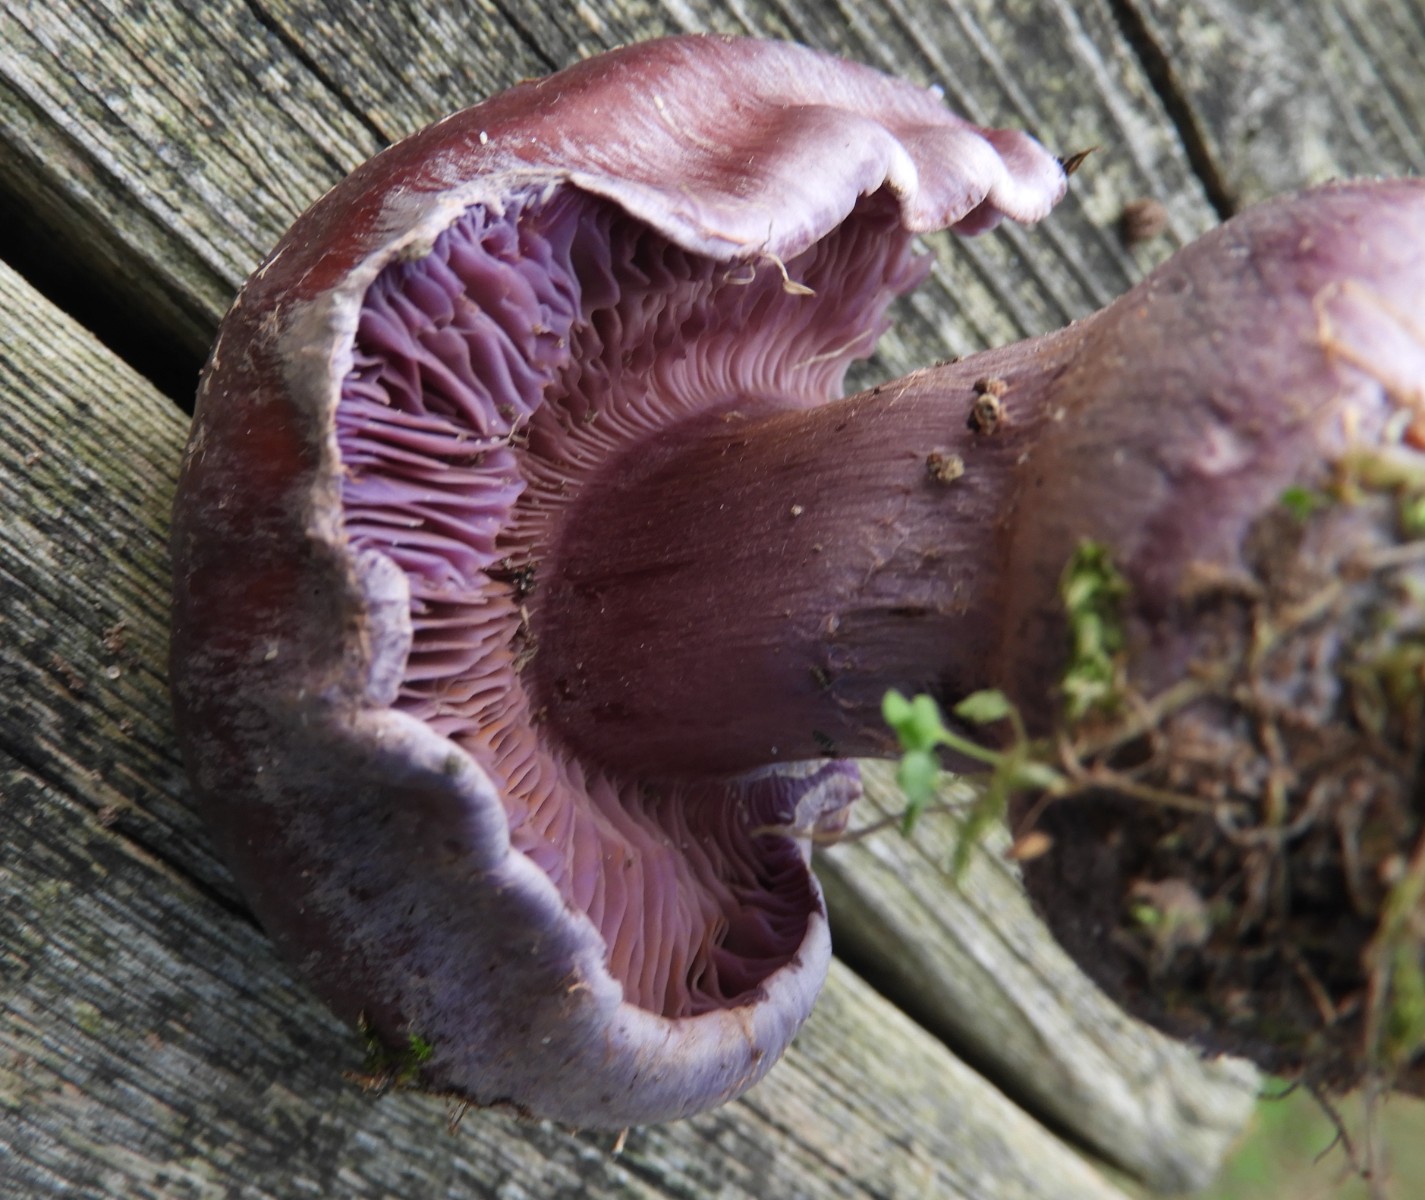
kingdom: Fungi
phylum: Basidiomycota
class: Agaricomycetes
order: Agaricales
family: Cortinariaceae
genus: Thaxterogaster
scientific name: Thaxterogaster purpurascens
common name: purpurbrun slørhat
